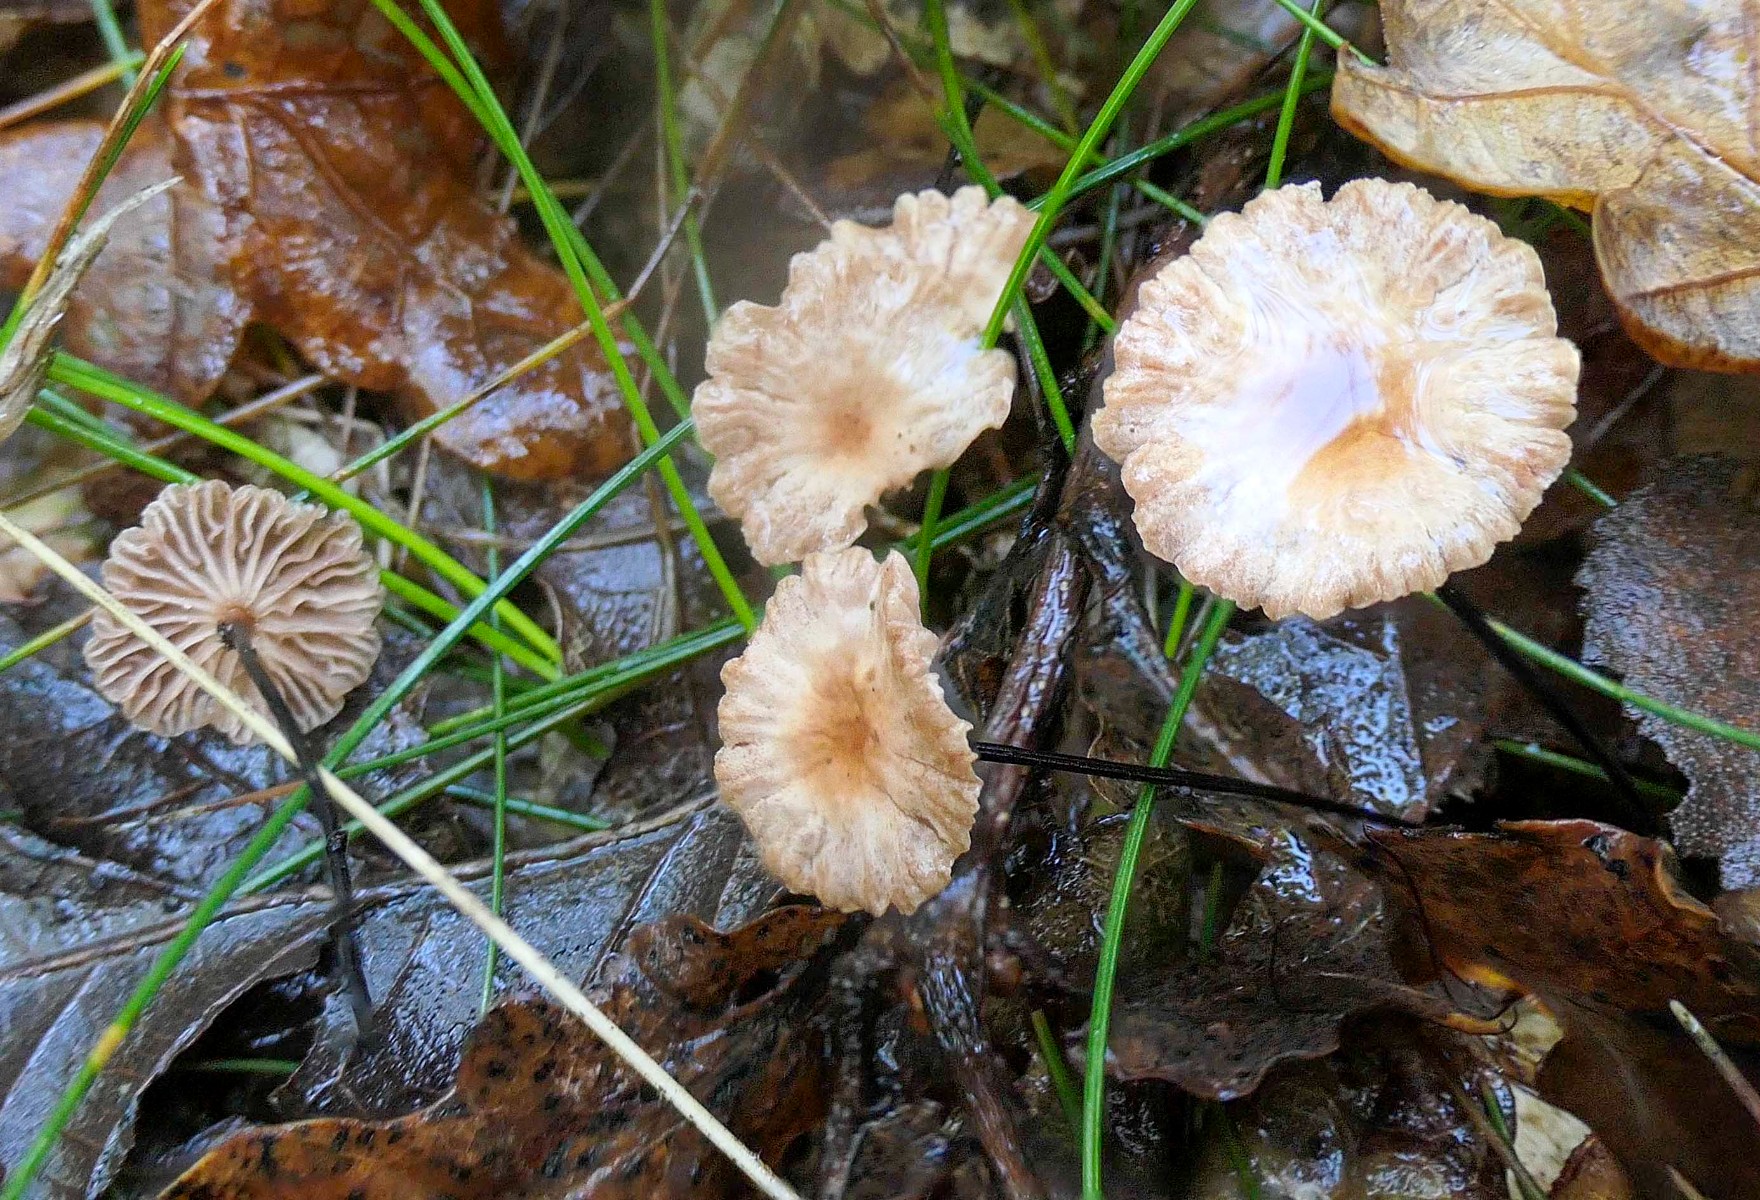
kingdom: Fungi
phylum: Basidiomycota
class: Agaricomycetes
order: Agaricales
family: Omphalotaceae
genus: Collybiopsis
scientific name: Collybiopsis quercophila
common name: egeblads-bruskhat
